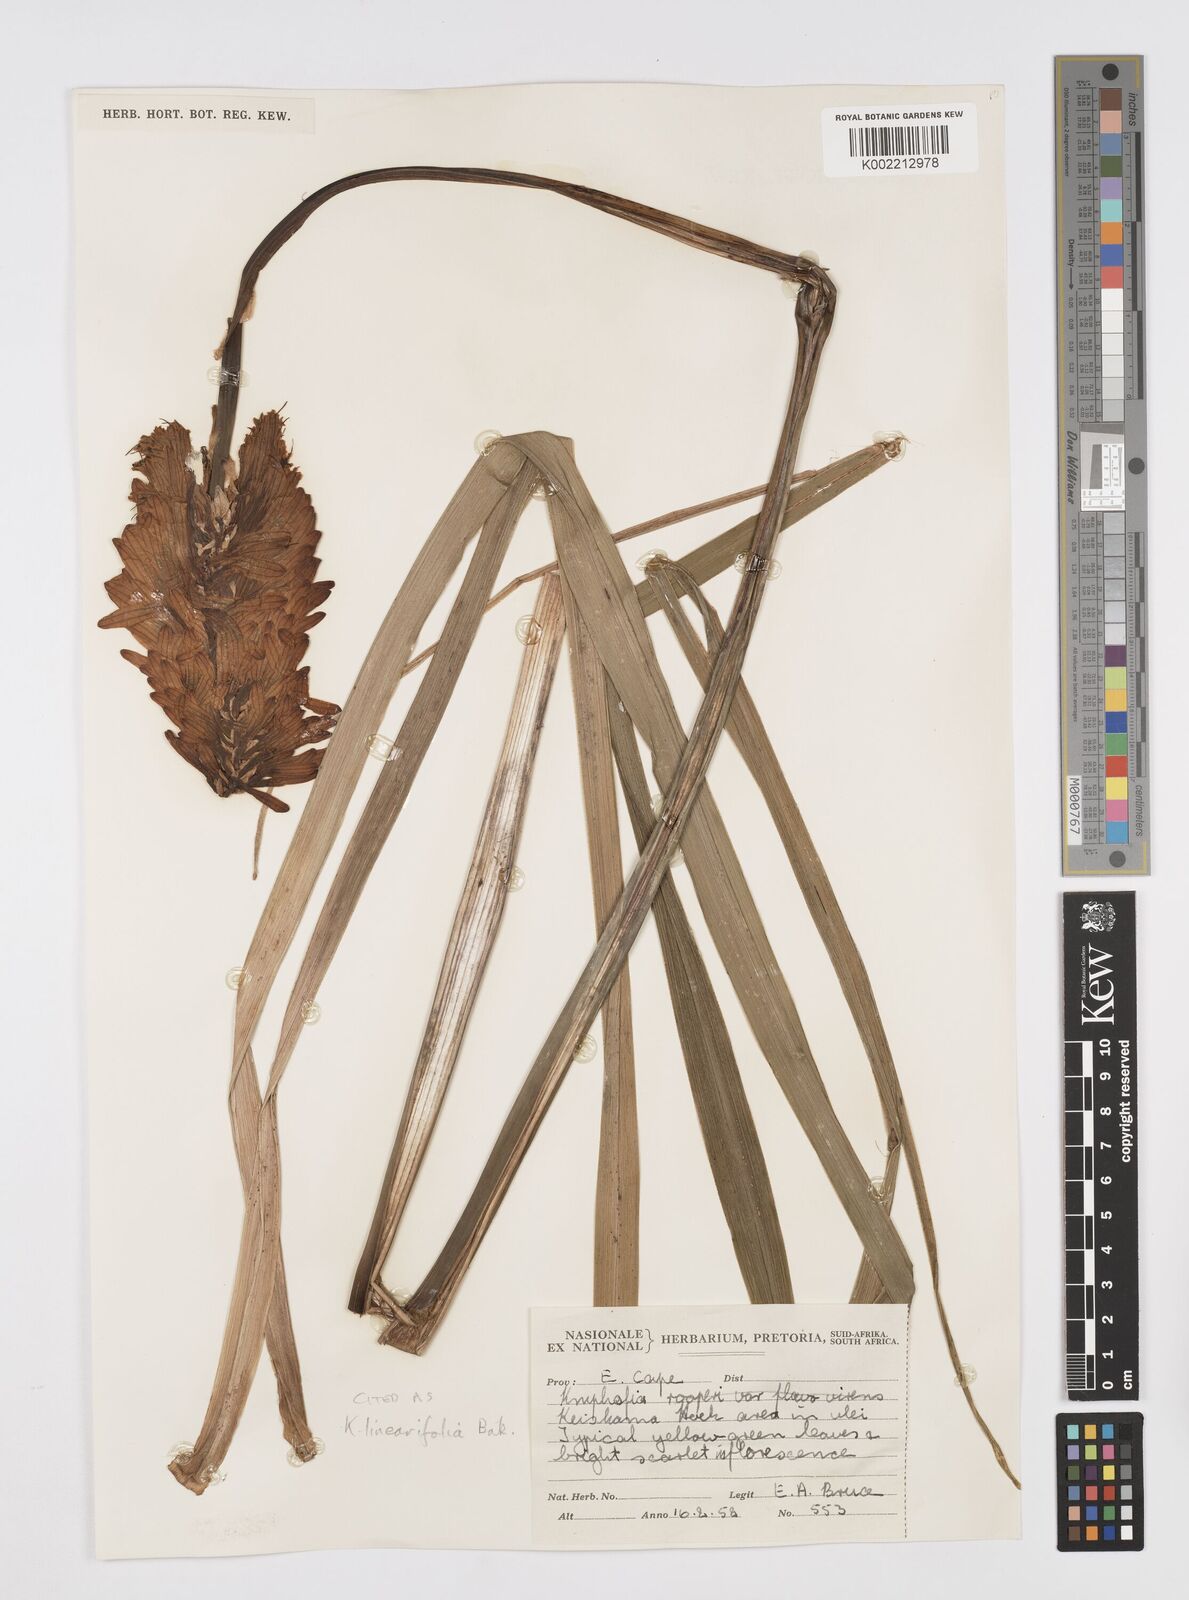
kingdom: Plantae
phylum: Tracheophyta
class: Liliopsida
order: Asparagales
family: Asphodelaceae
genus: Kniphofia
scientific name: Kniphofia linearifolia
